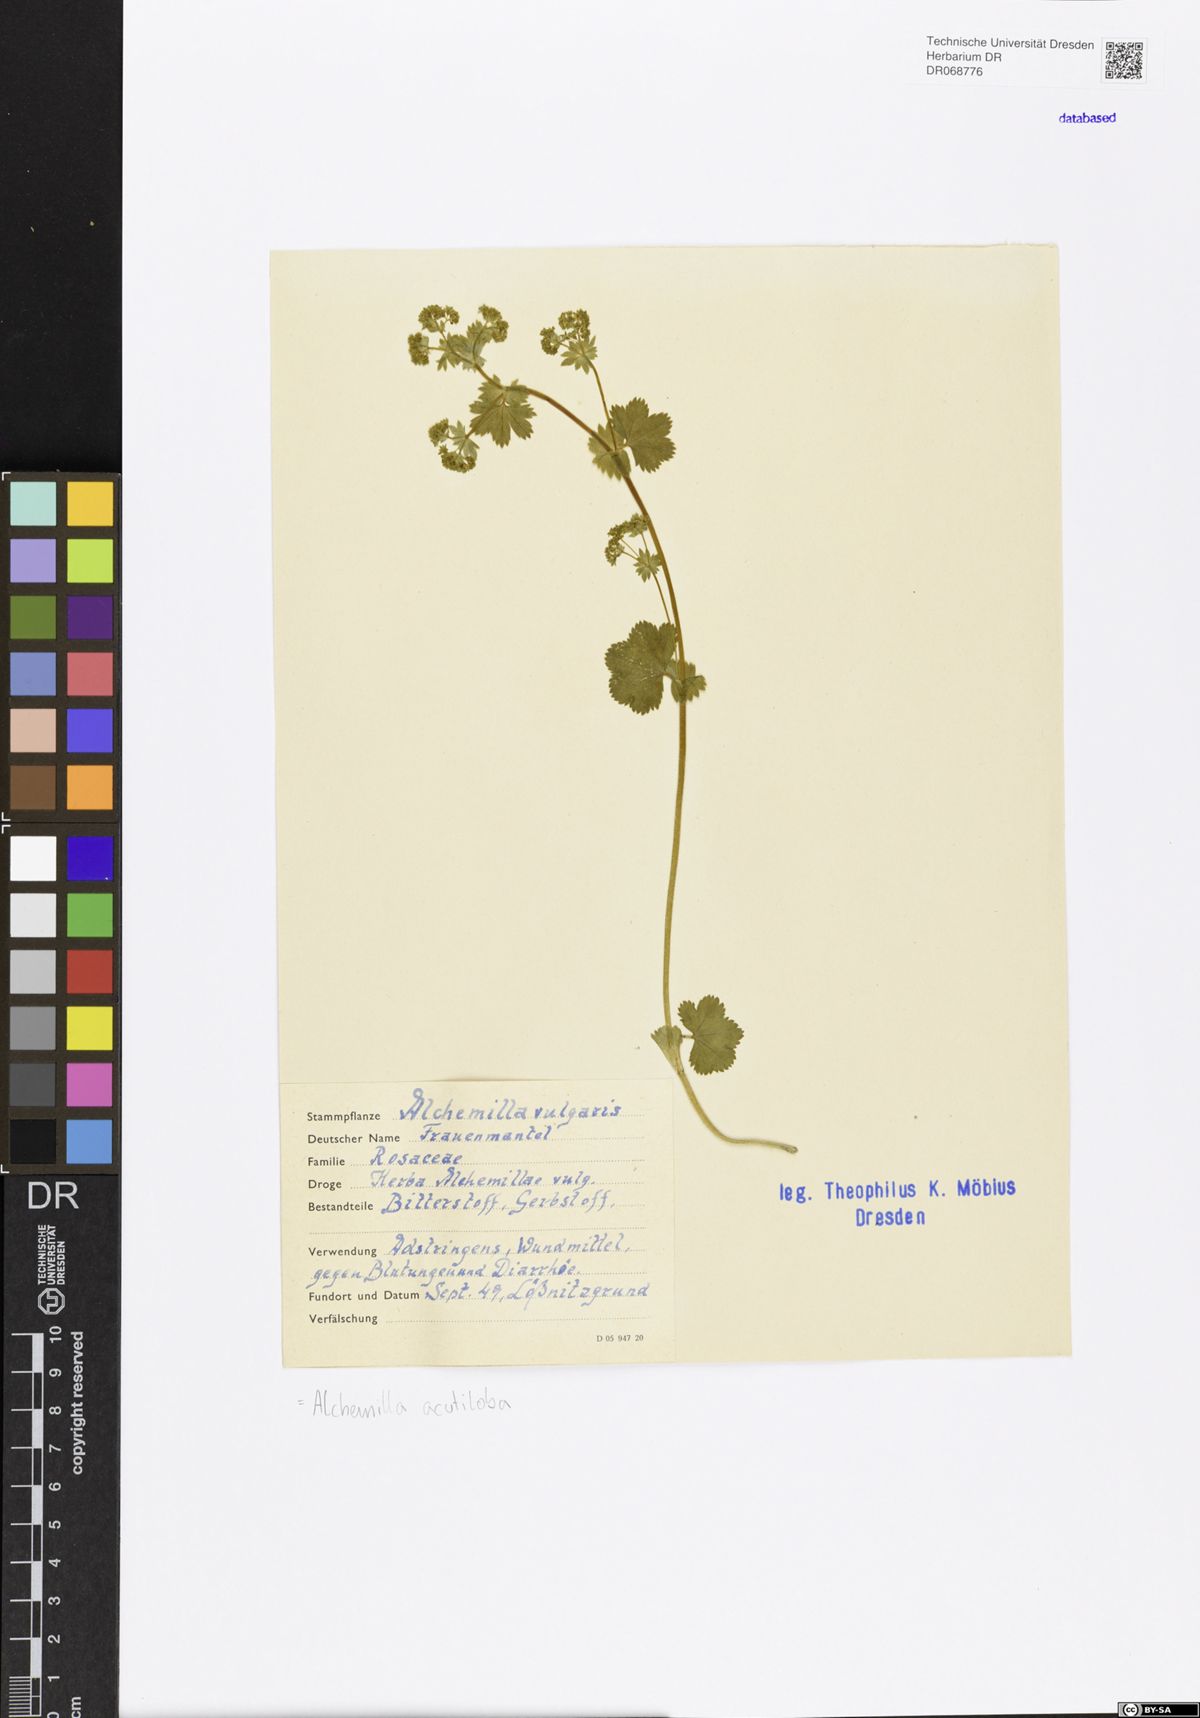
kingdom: Plantae
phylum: Tracheophyta
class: Magnoliopsida
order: Rosales
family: Rosaceae
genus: Alchemilla
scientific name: Alchemilla vulgaris
